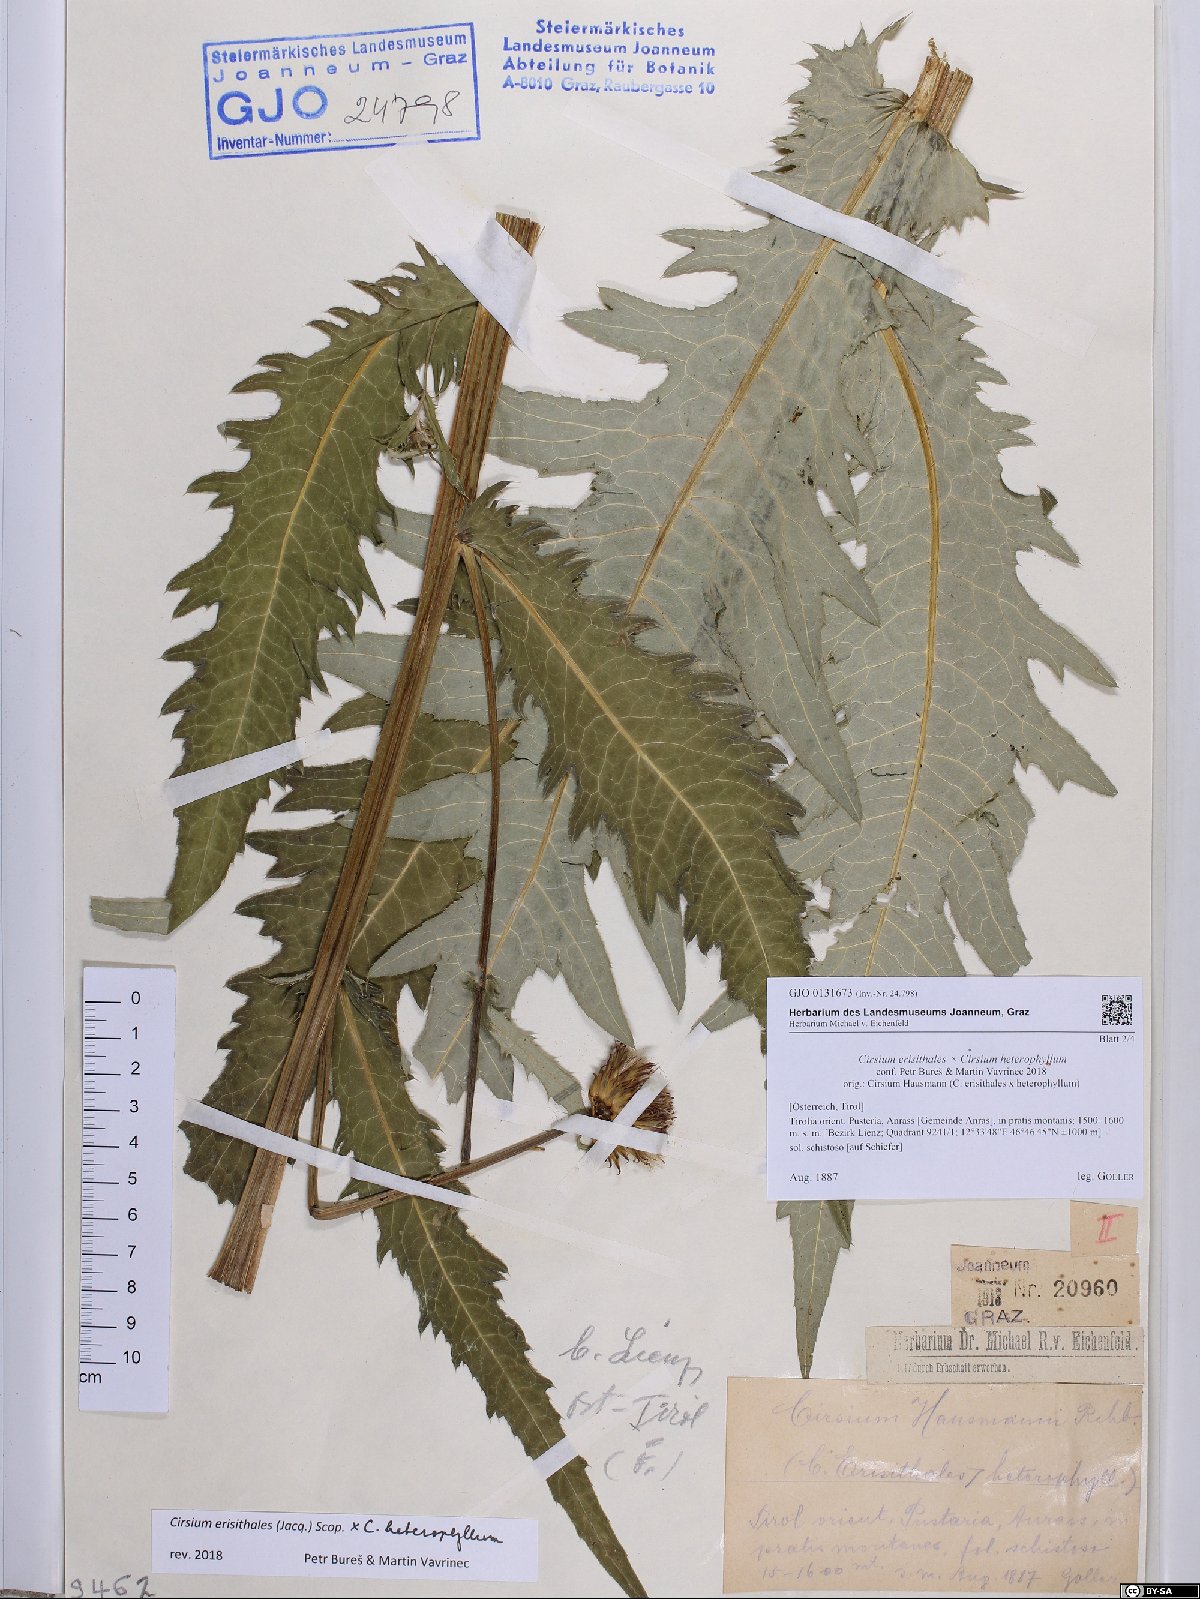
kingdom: Plantae
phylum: Tracheophyta
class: Magnoliopsida
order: Asterales
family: Asteraceae
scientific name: Asteraceae
